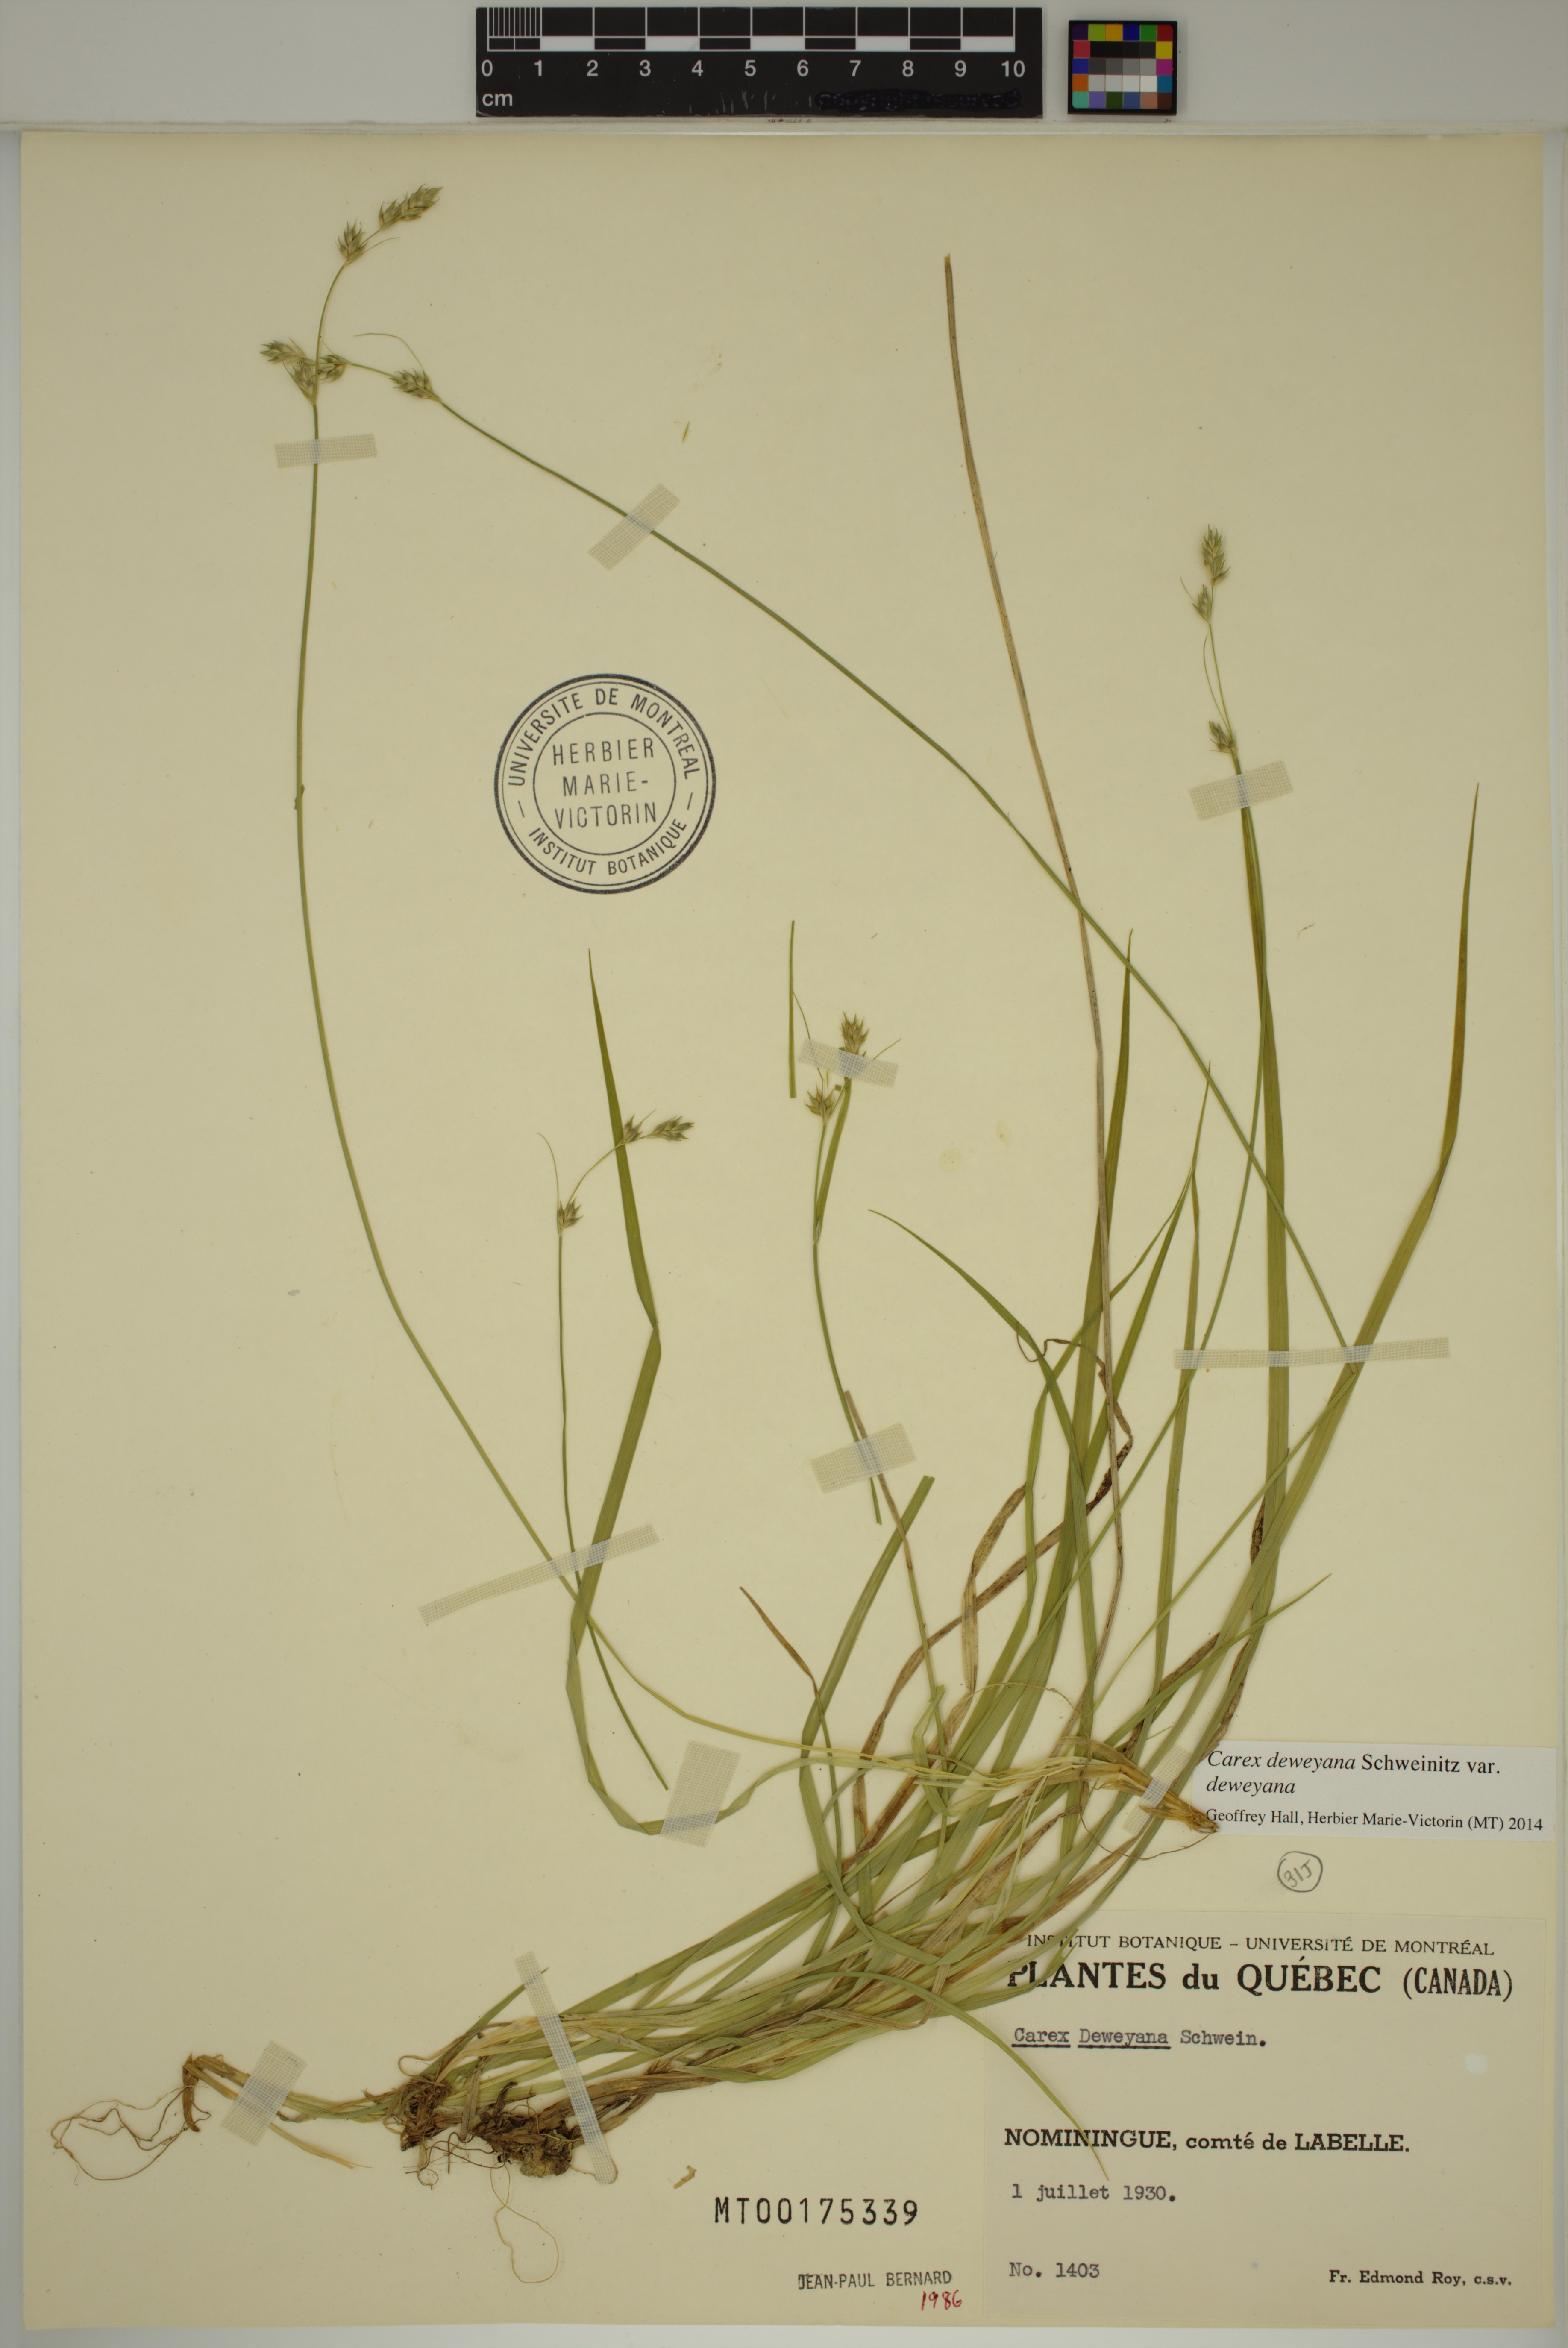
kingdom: Plantae
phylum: Tracheophyta
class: Liliopsida
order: Poales
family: Cyperaceae
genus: Carex
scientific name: Carex deweyana
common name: Dewey's sedge
